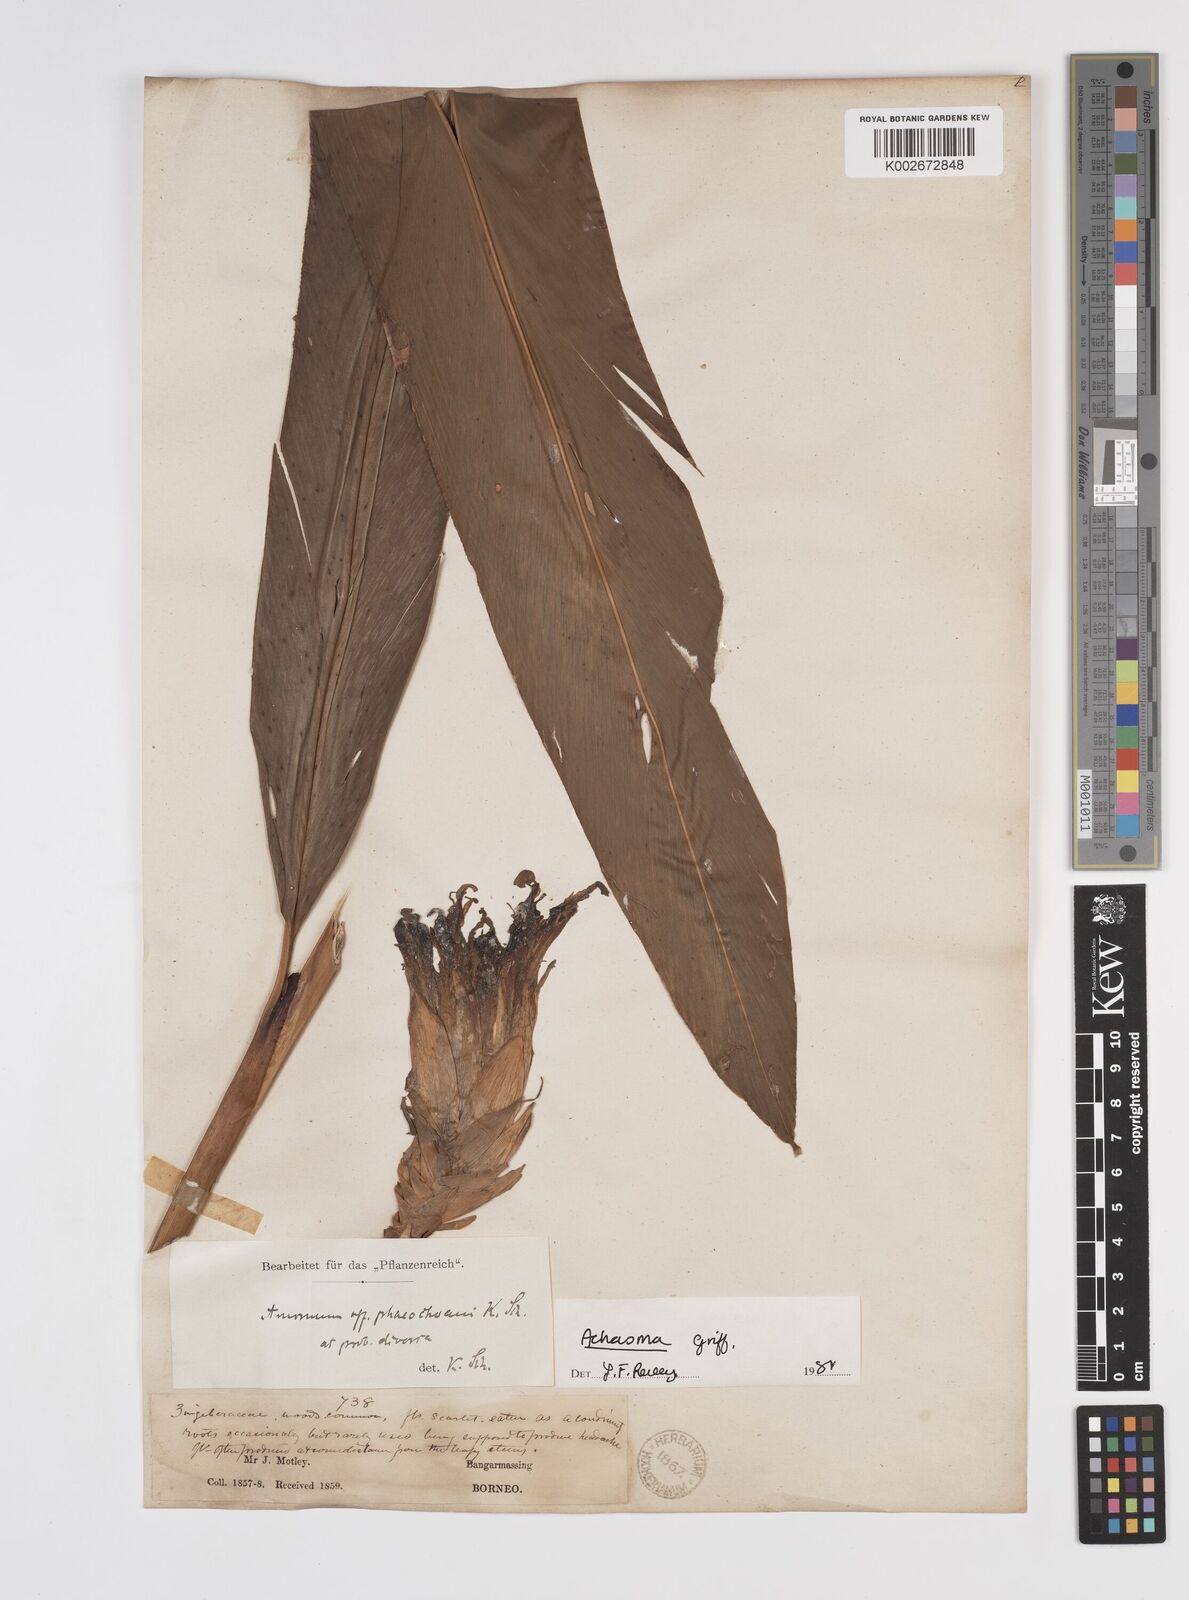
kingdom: Plantae
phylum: Tracheophyta
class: Liliopsida
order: Zingiberales
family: Zingiberaceae
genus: Etlingera
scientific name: Etlingera
